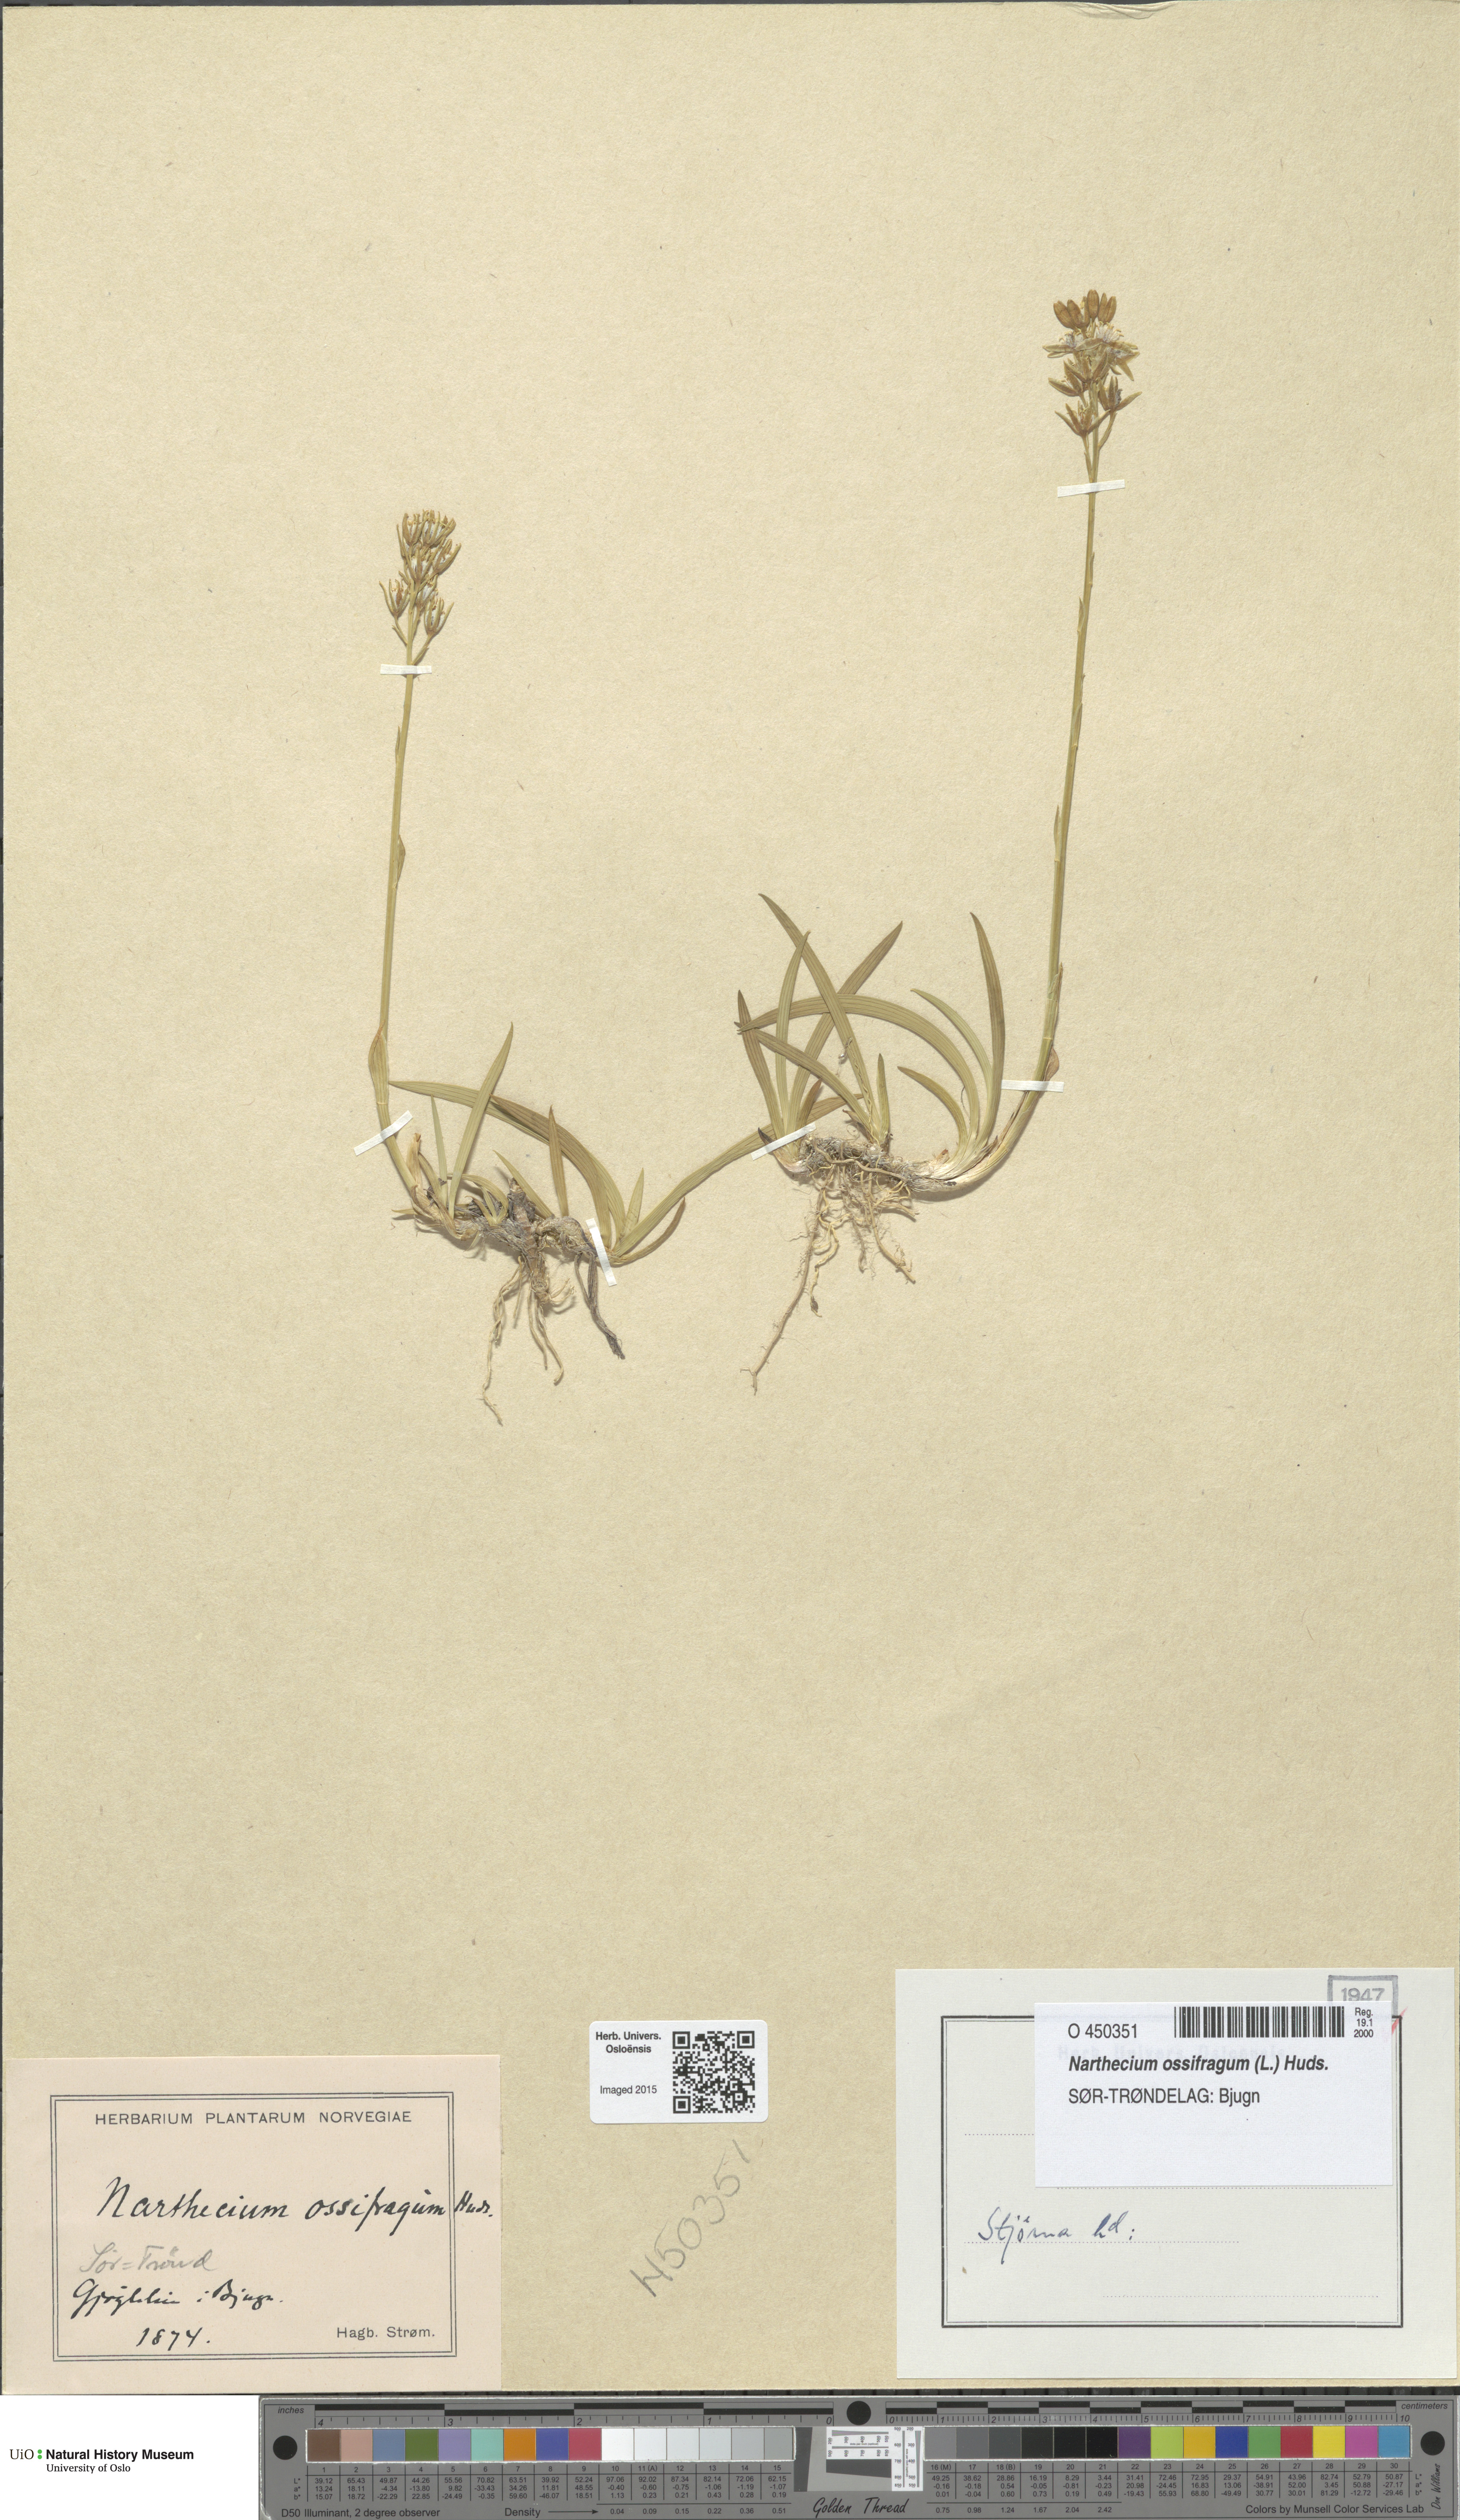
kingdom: Plantae
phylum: Tracheophyta
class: Liliopsida
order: Dioscoreales
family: Nartheciaceae
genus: Narthecium
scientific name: Narthecium ossifragum
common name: Bog asphodel
